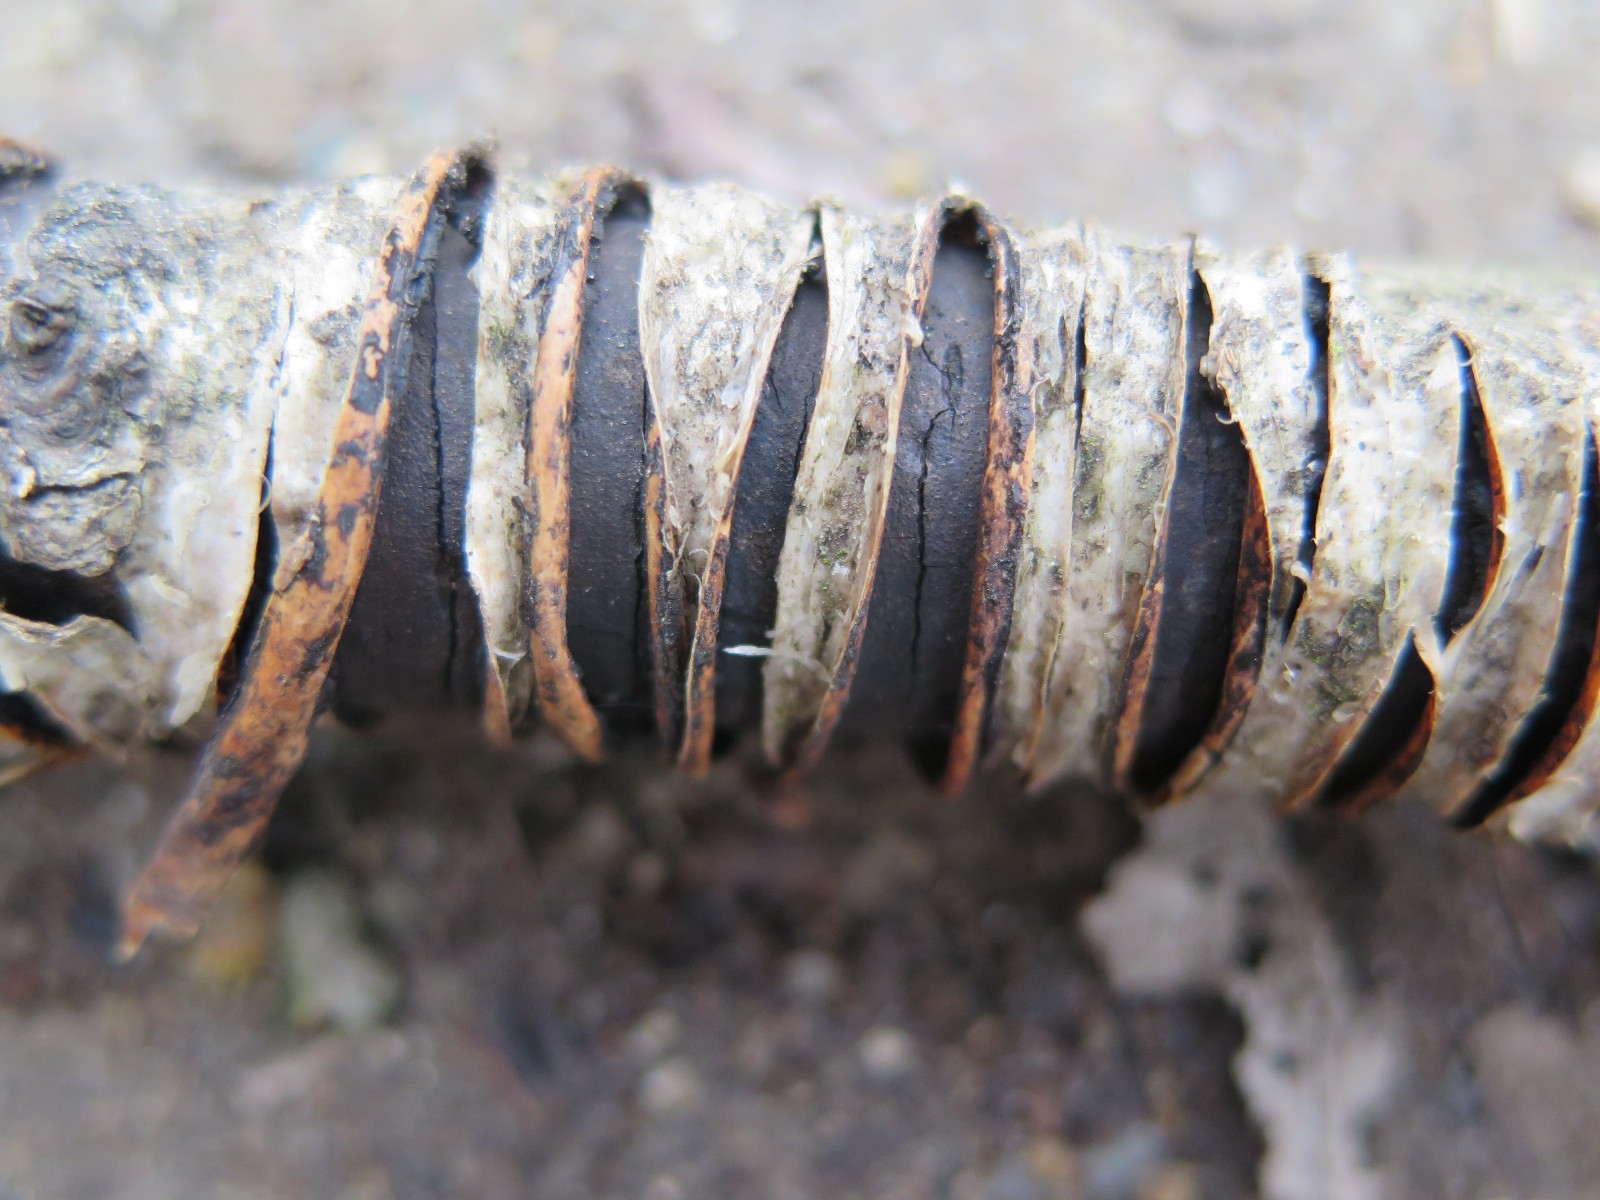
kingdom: Fungi
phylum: Ascomycota
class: Sordariomycetes
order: Xylariales
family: Diatrypaceae
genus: Diatrype
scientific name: Diatrype
